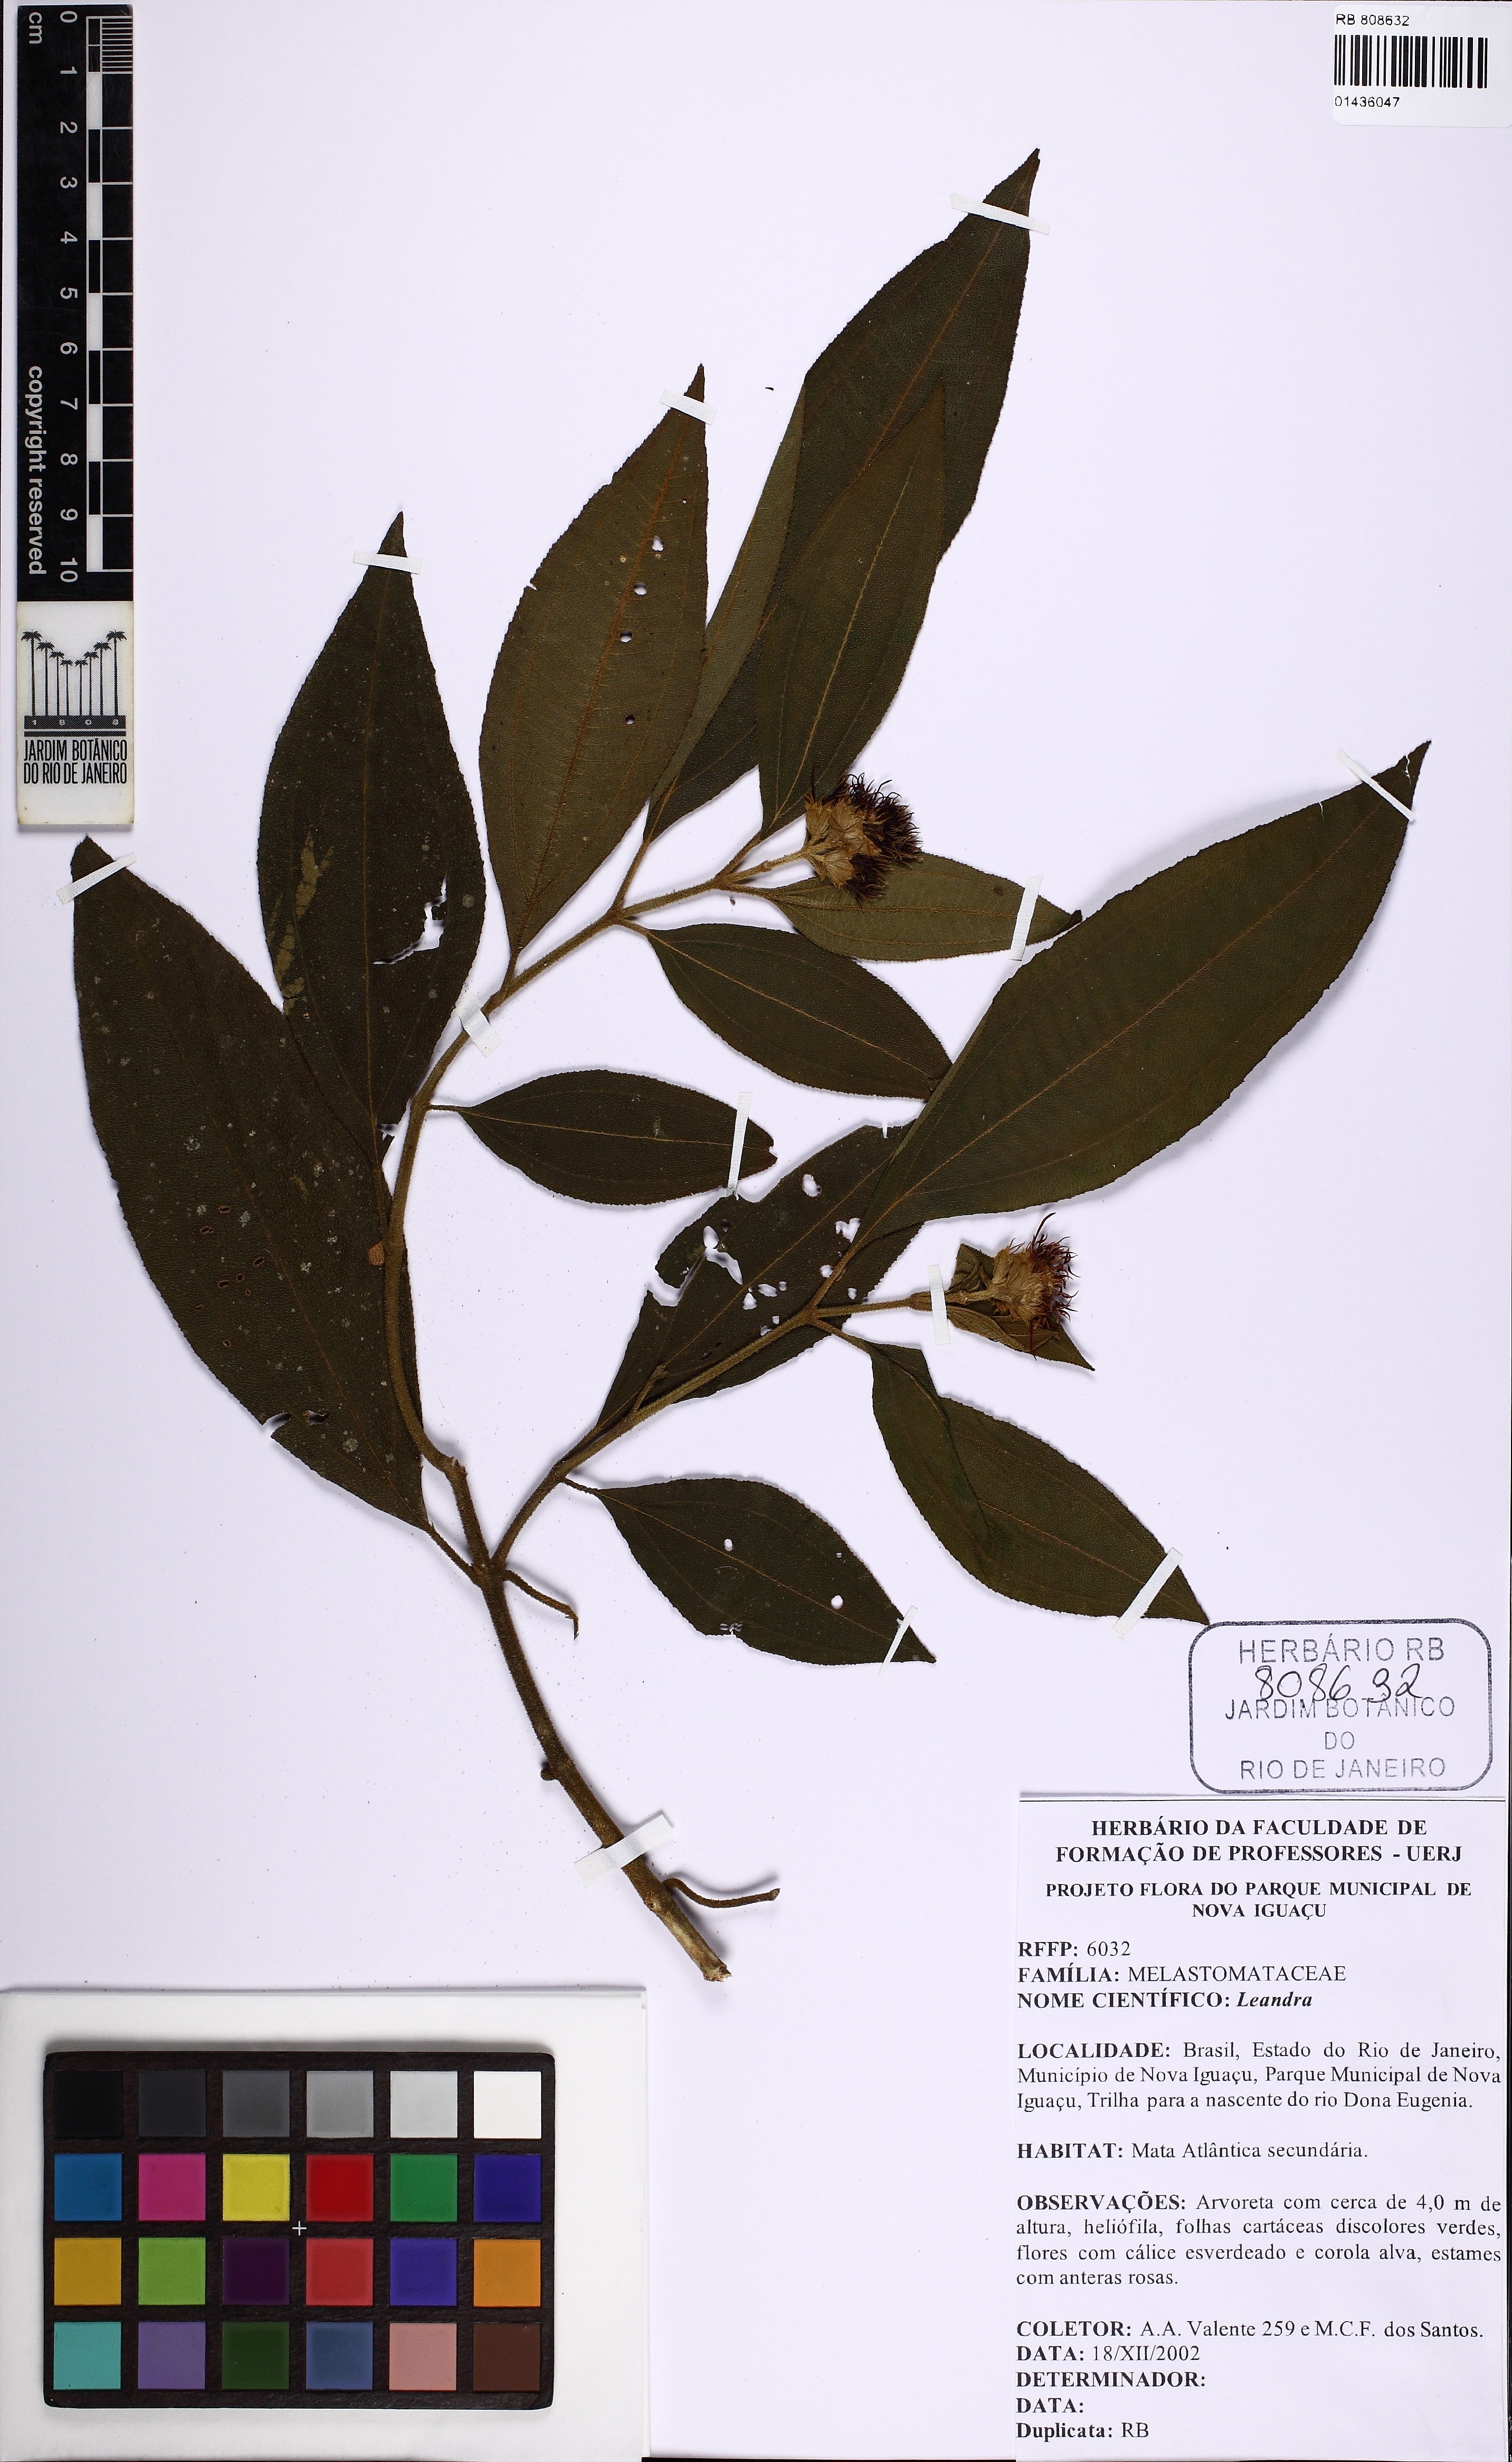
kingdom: Plantae
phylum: Tracheophyta
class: Magnoliopsida
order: Myrtales
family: Melastomataceae
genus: Miconia
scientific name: Miconia
